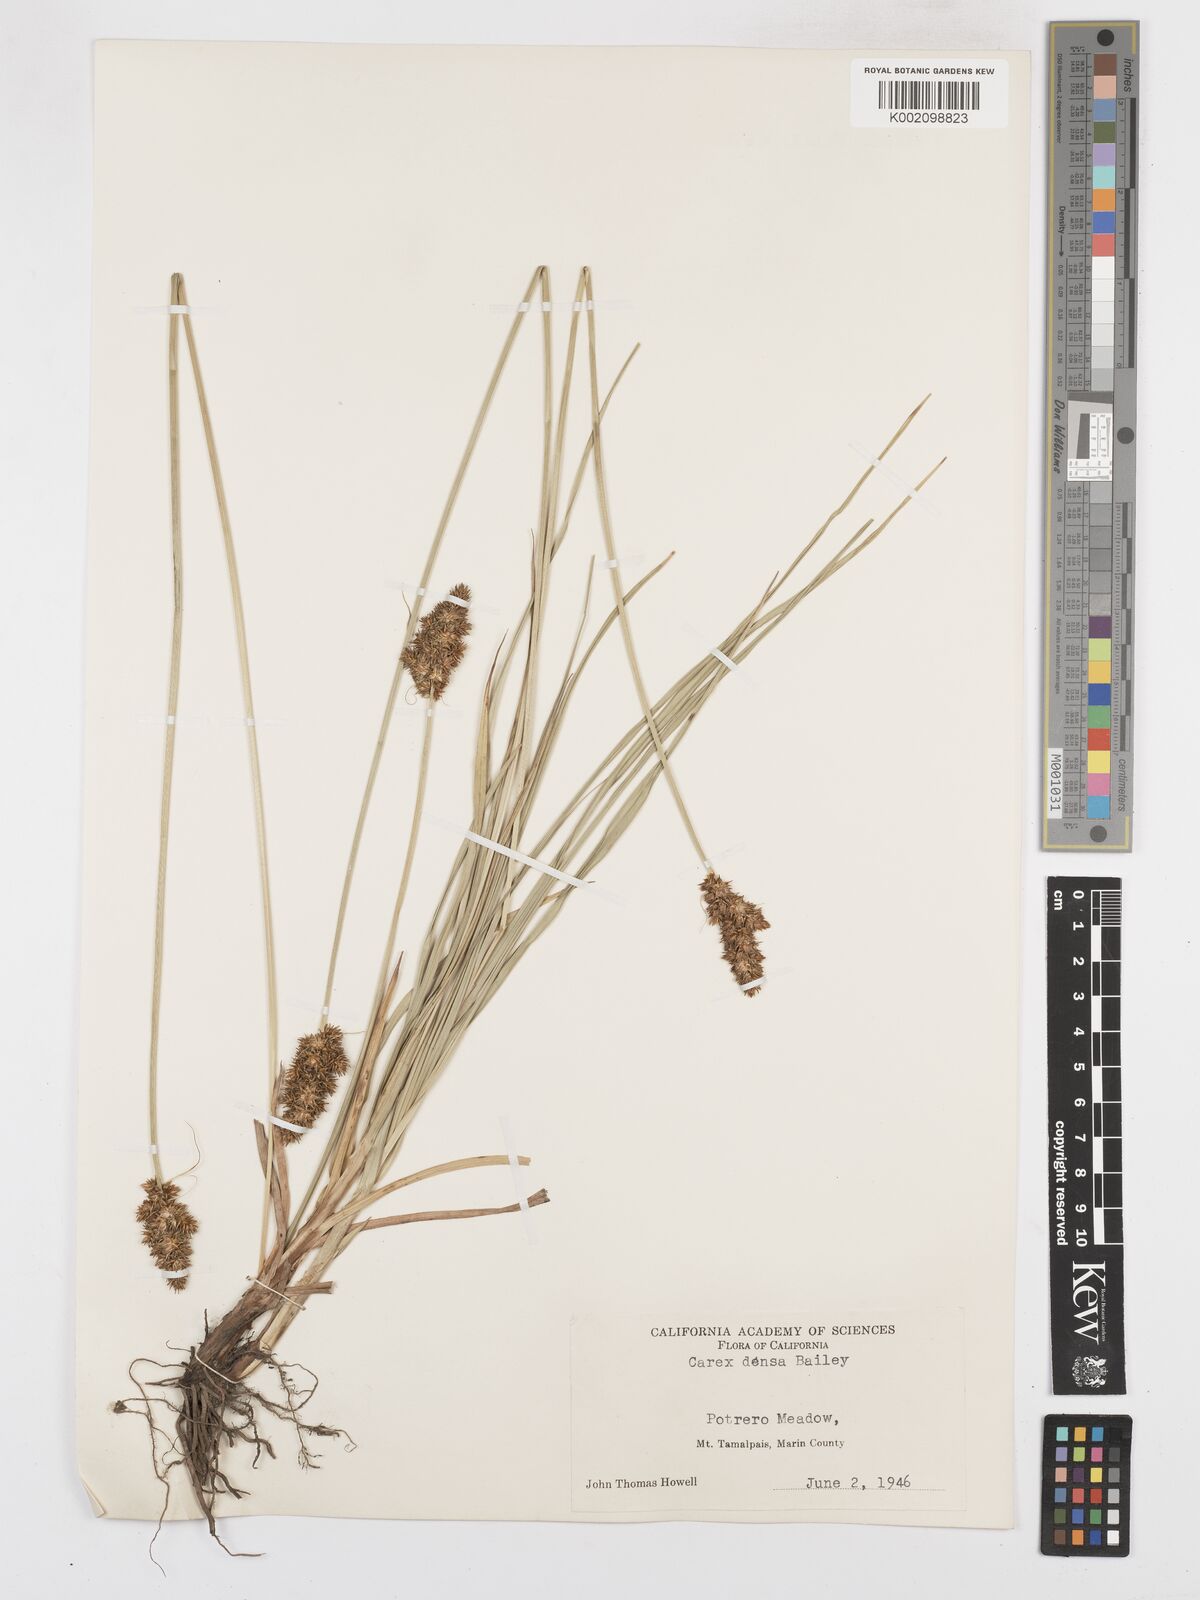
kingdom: Plantae
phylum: Tracheophyta
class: Liliopsida
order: Poales
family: Cyperaceae
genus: Carex
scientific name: Carex densa
